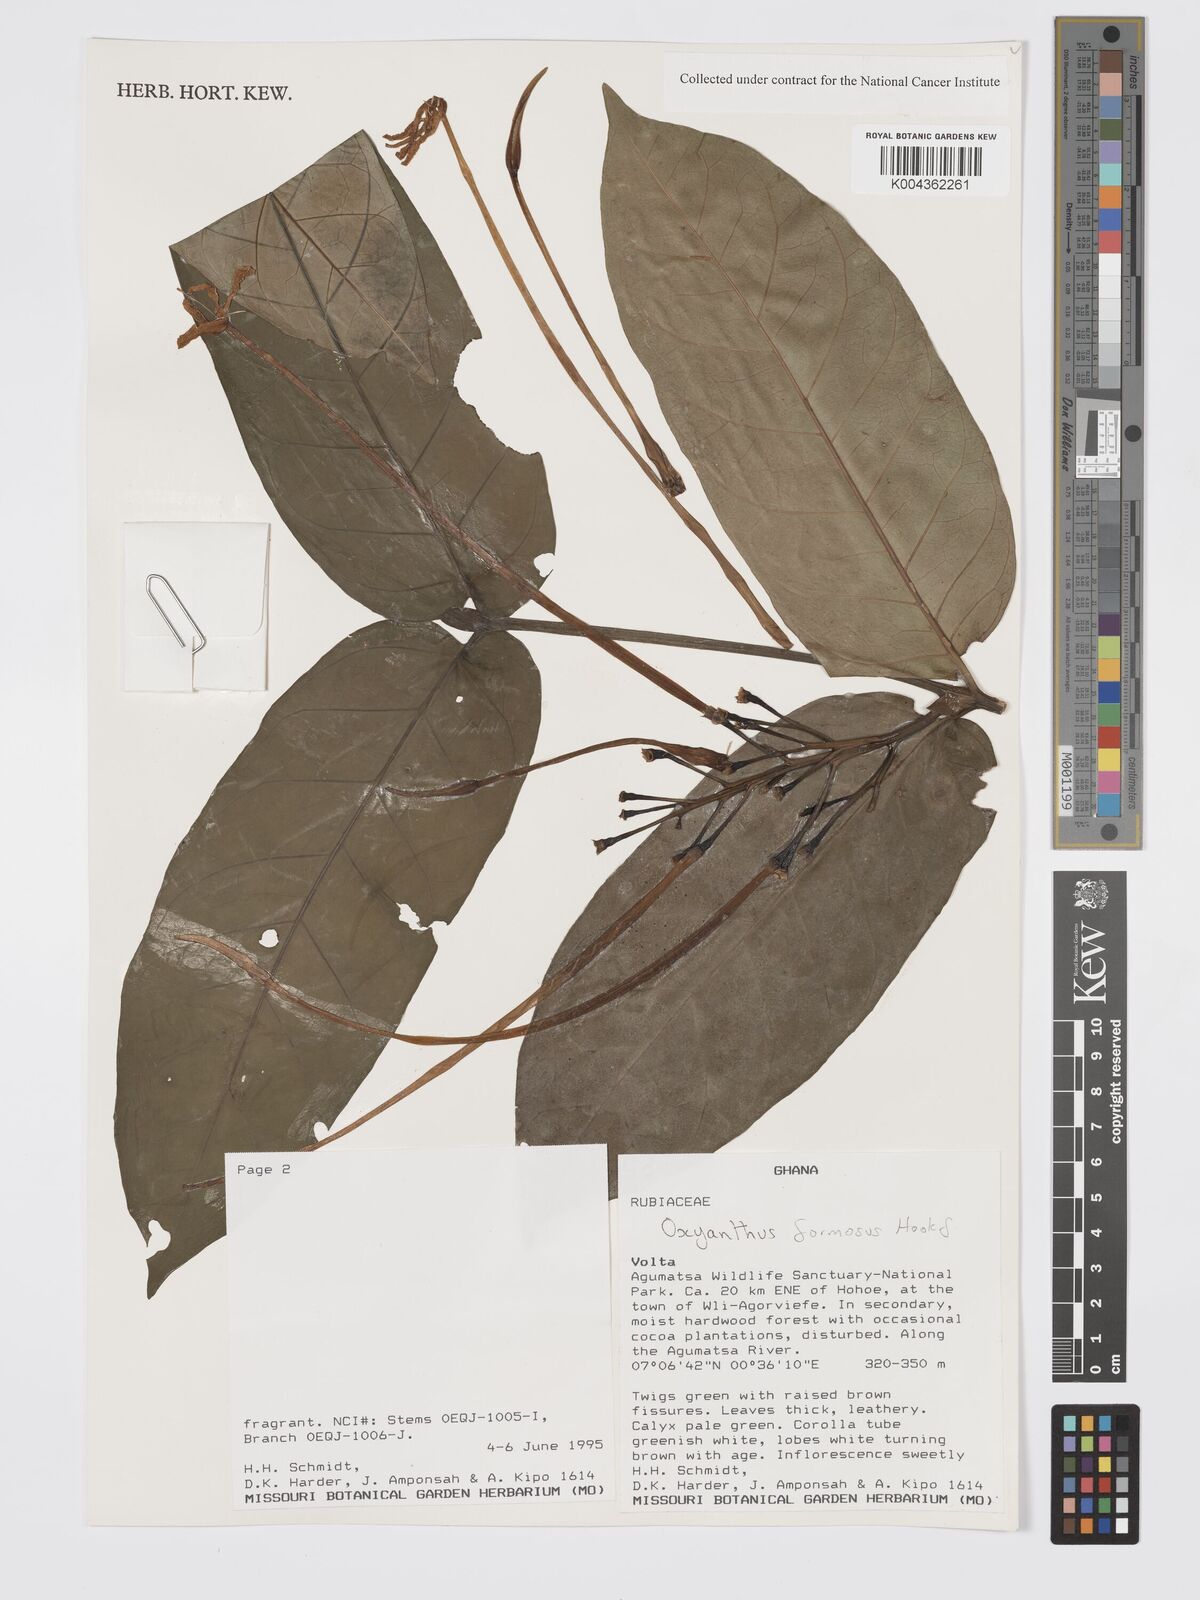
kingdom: Plantae
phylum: Tracheophyta
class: Magnoliopsida
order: Gentianales
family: Rubiaceae
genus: Oxyanthus
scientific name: Oxyanthus formosus
